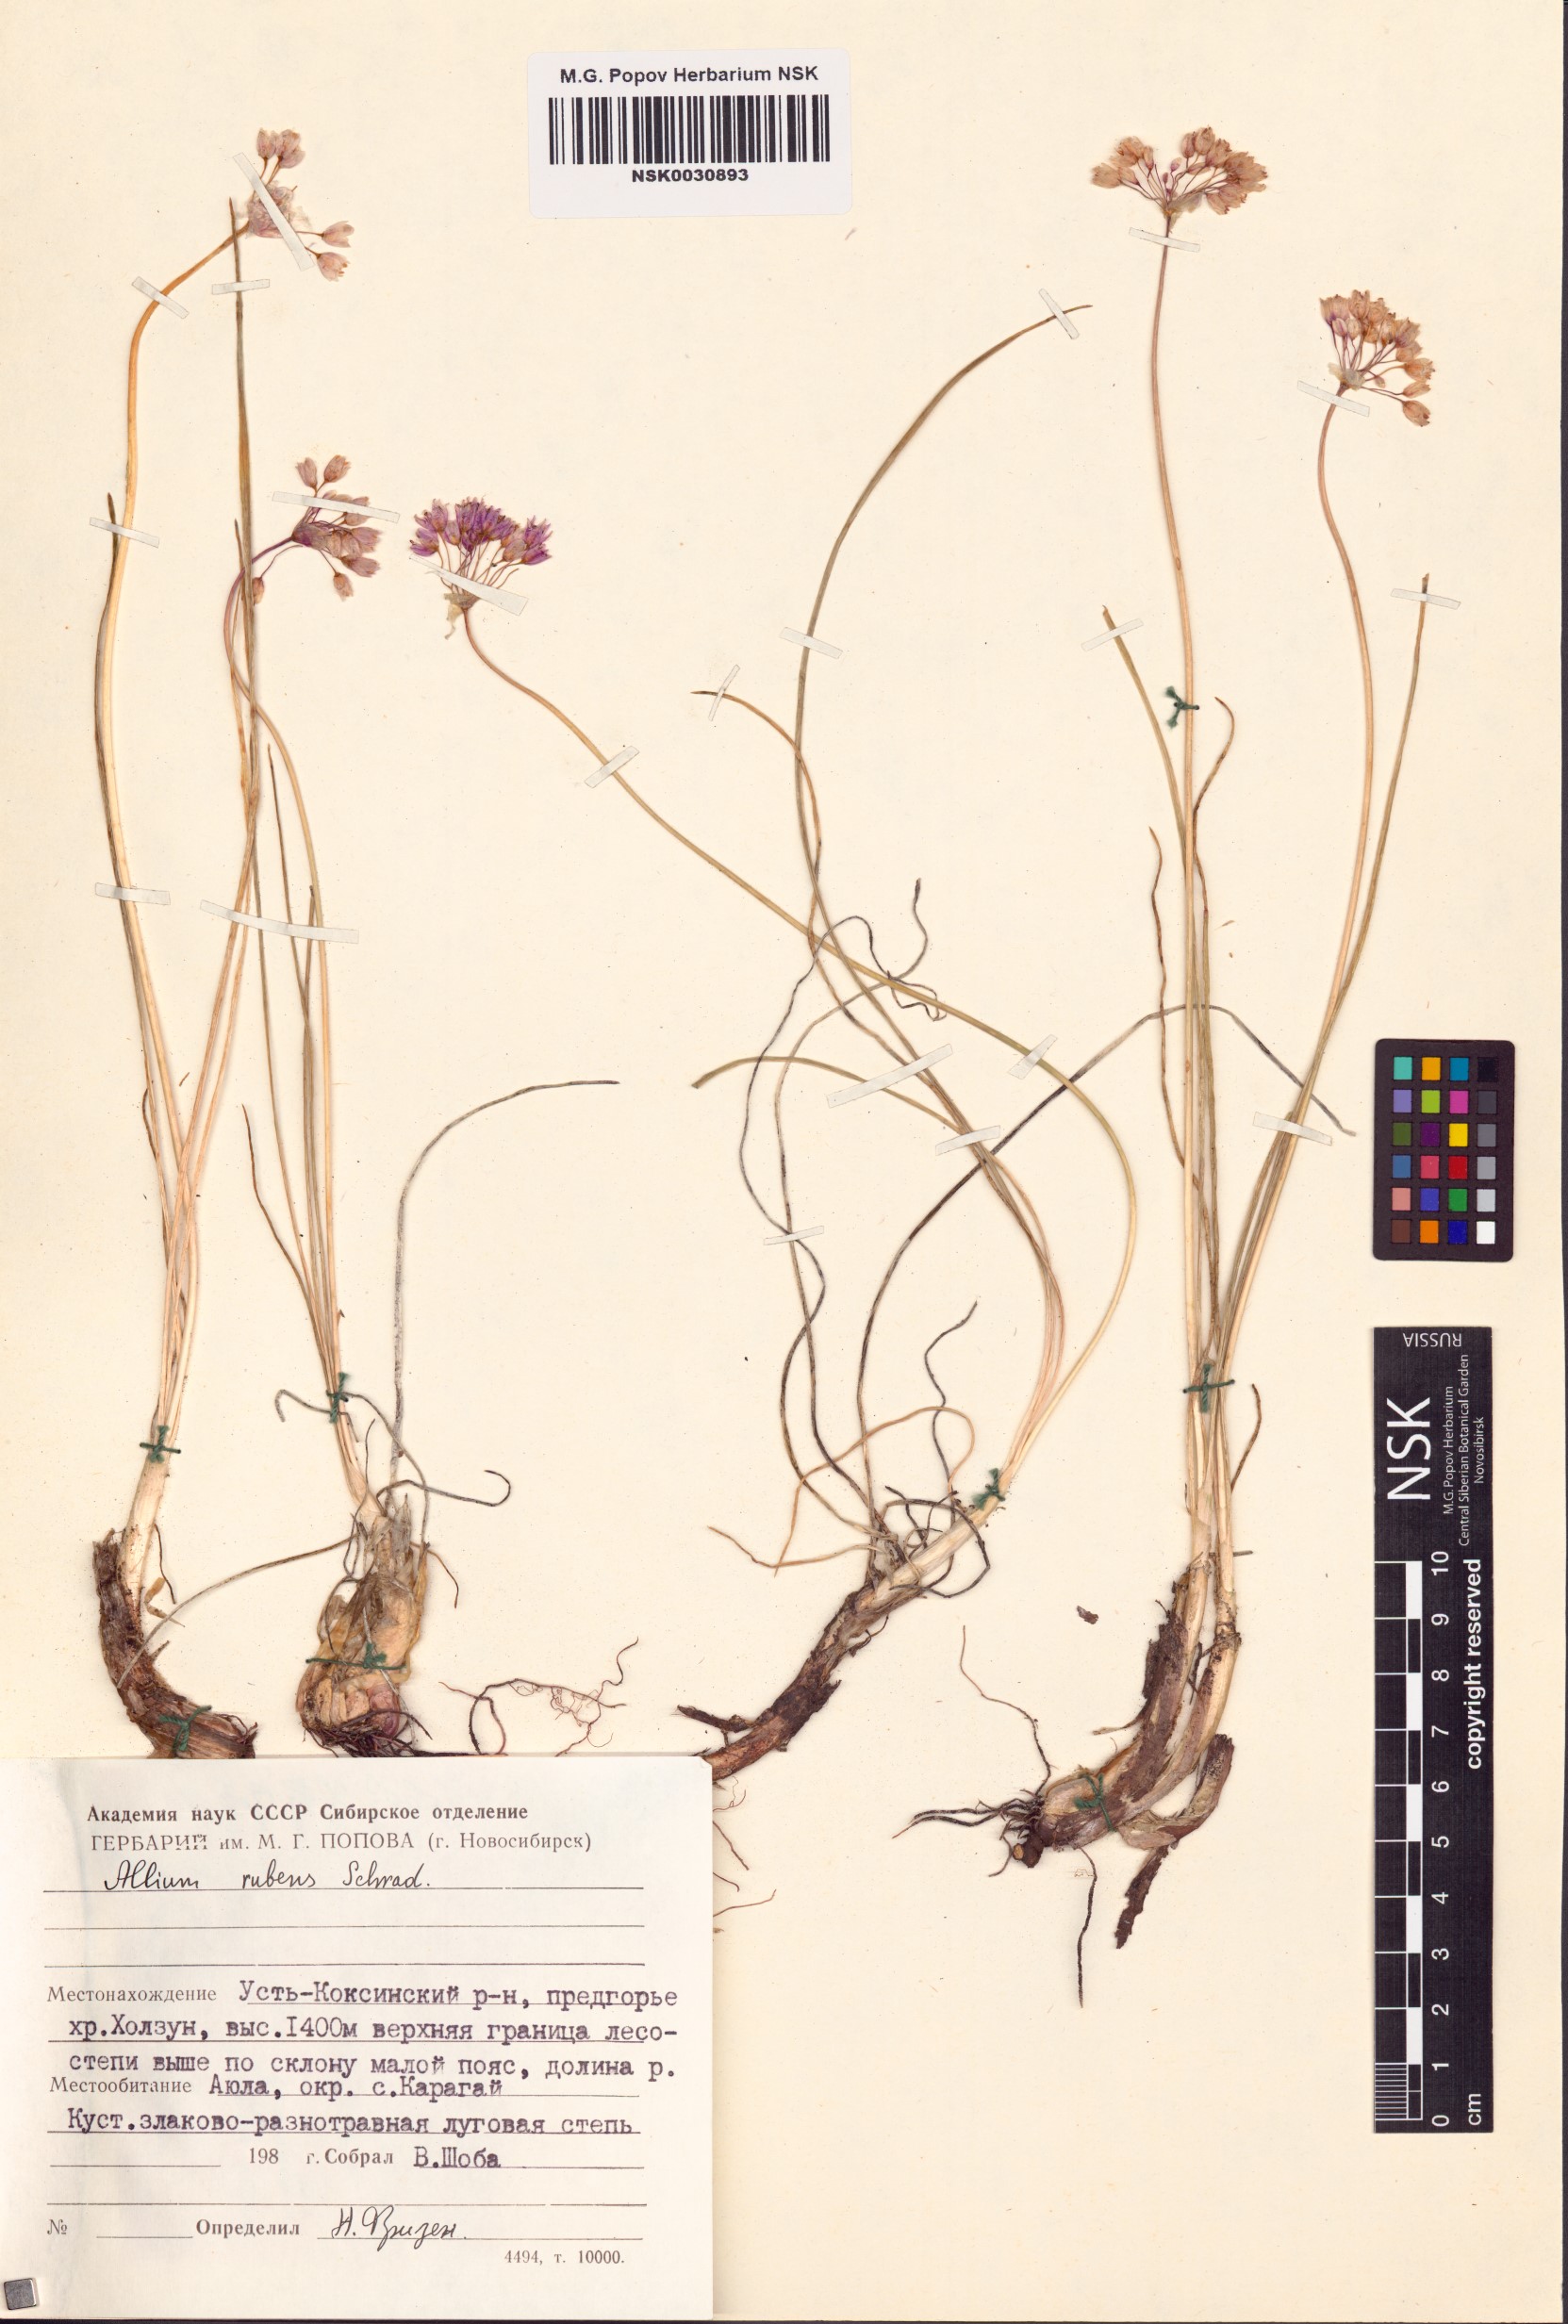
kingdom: Plantae
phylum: Tracheophyta
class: Liliopsida
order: Asparagales
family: Amaryllidaceae
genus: Allium
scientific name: Allium rubens
